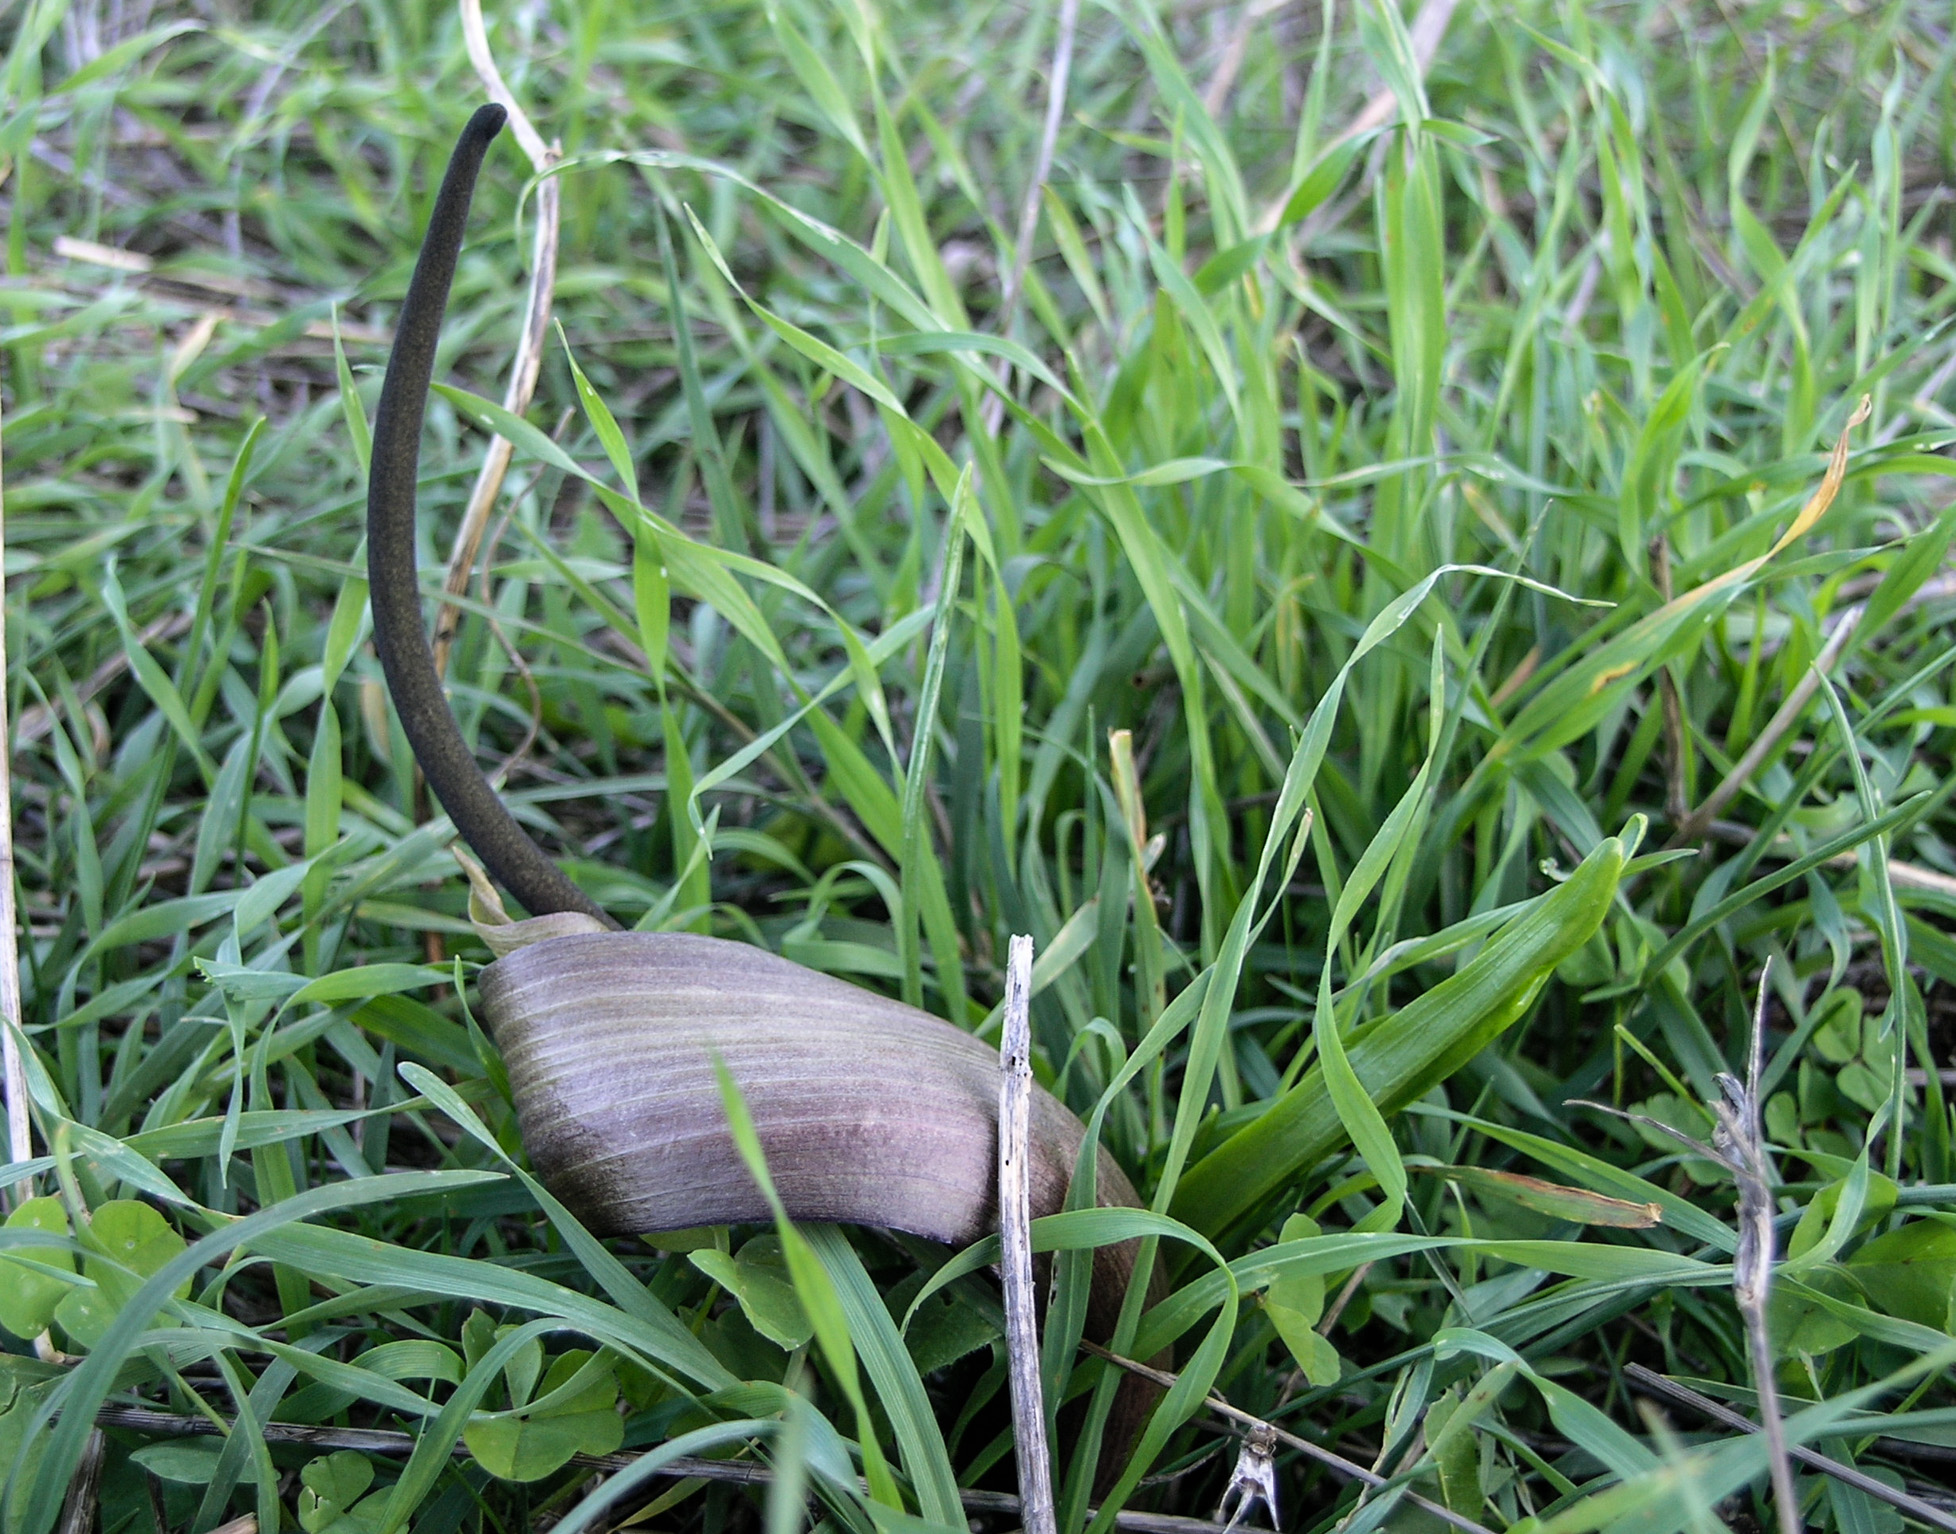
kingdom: Plantae
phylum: Tracheophyta
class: Liliopsida
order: Alismatales
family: Araceae
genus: Biarum
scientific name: Biarum tenuifolium
